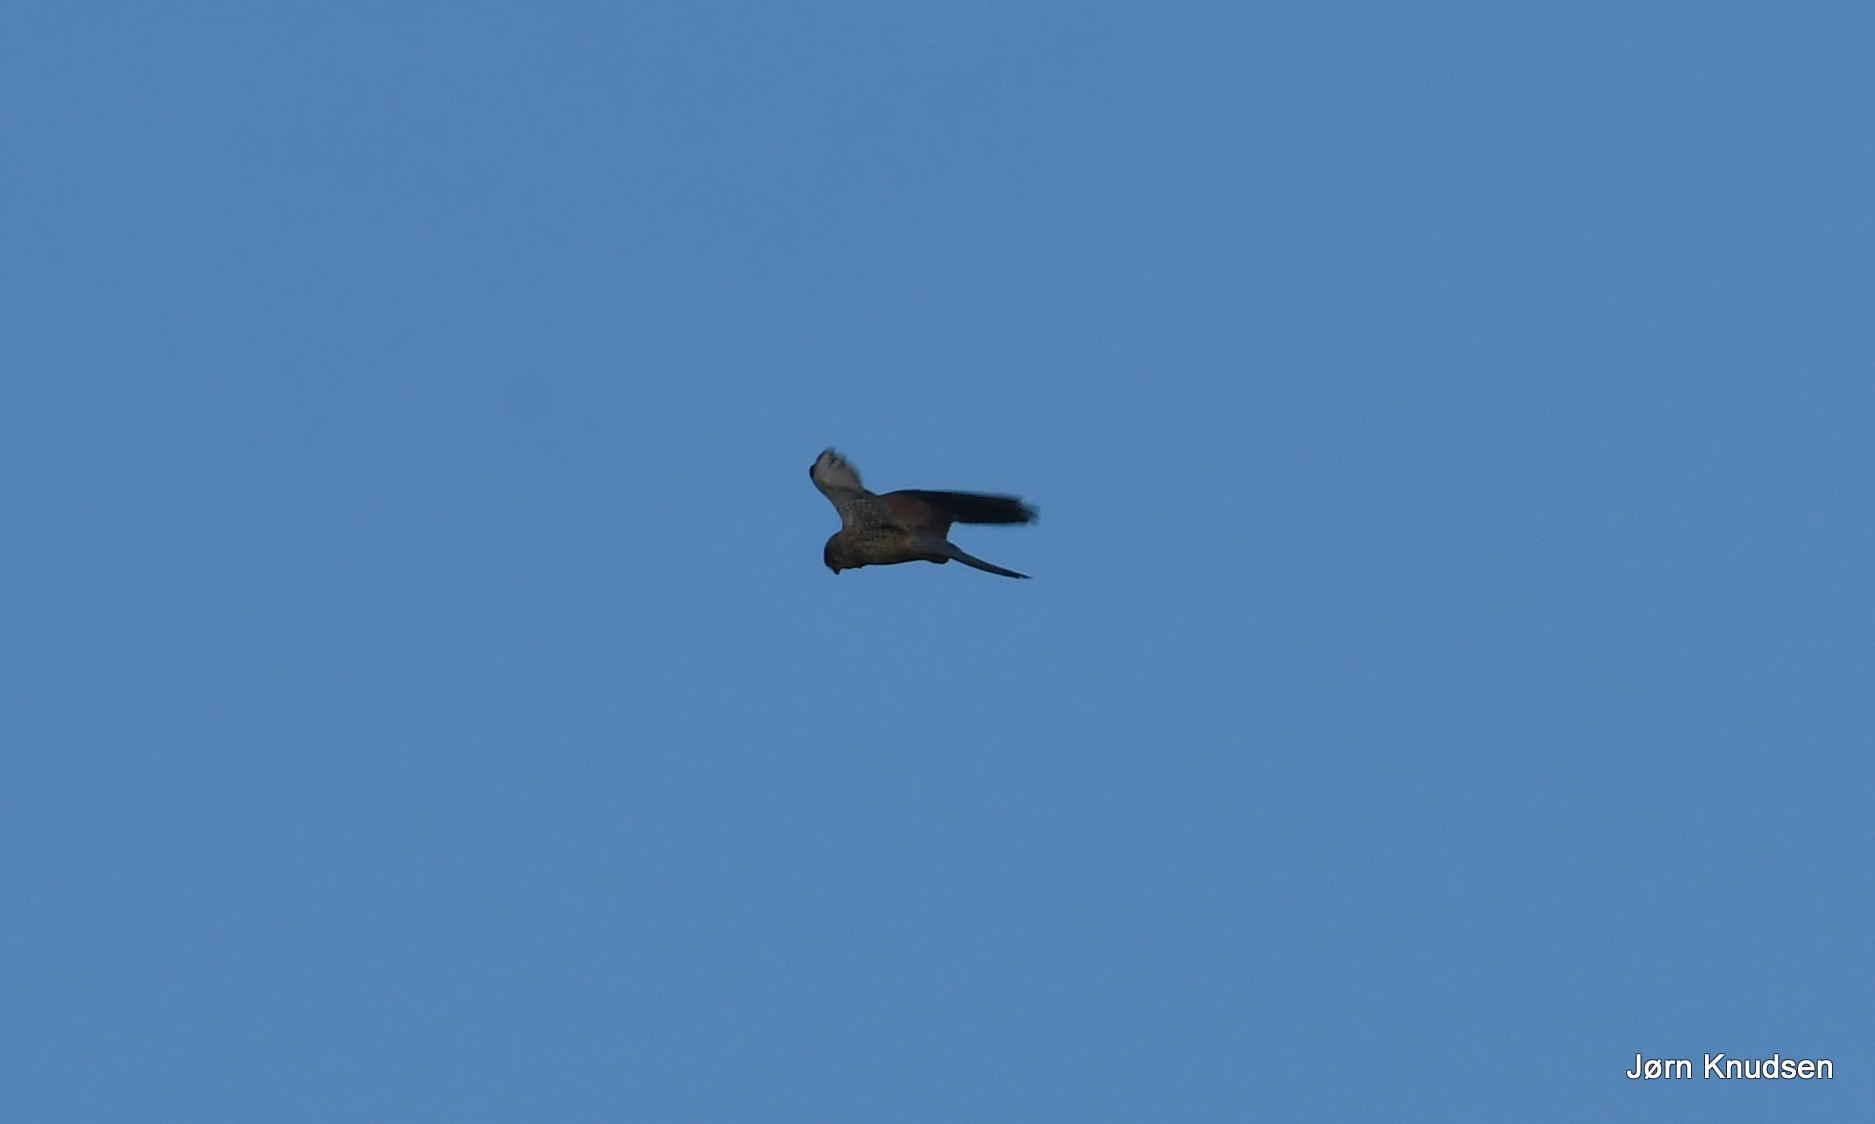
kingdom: Animalia
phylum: Chordata
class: Aves
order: Falconiformes
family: Falconidae
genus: Falco
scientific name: Falco tinnunculus
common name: Tårnfalk
